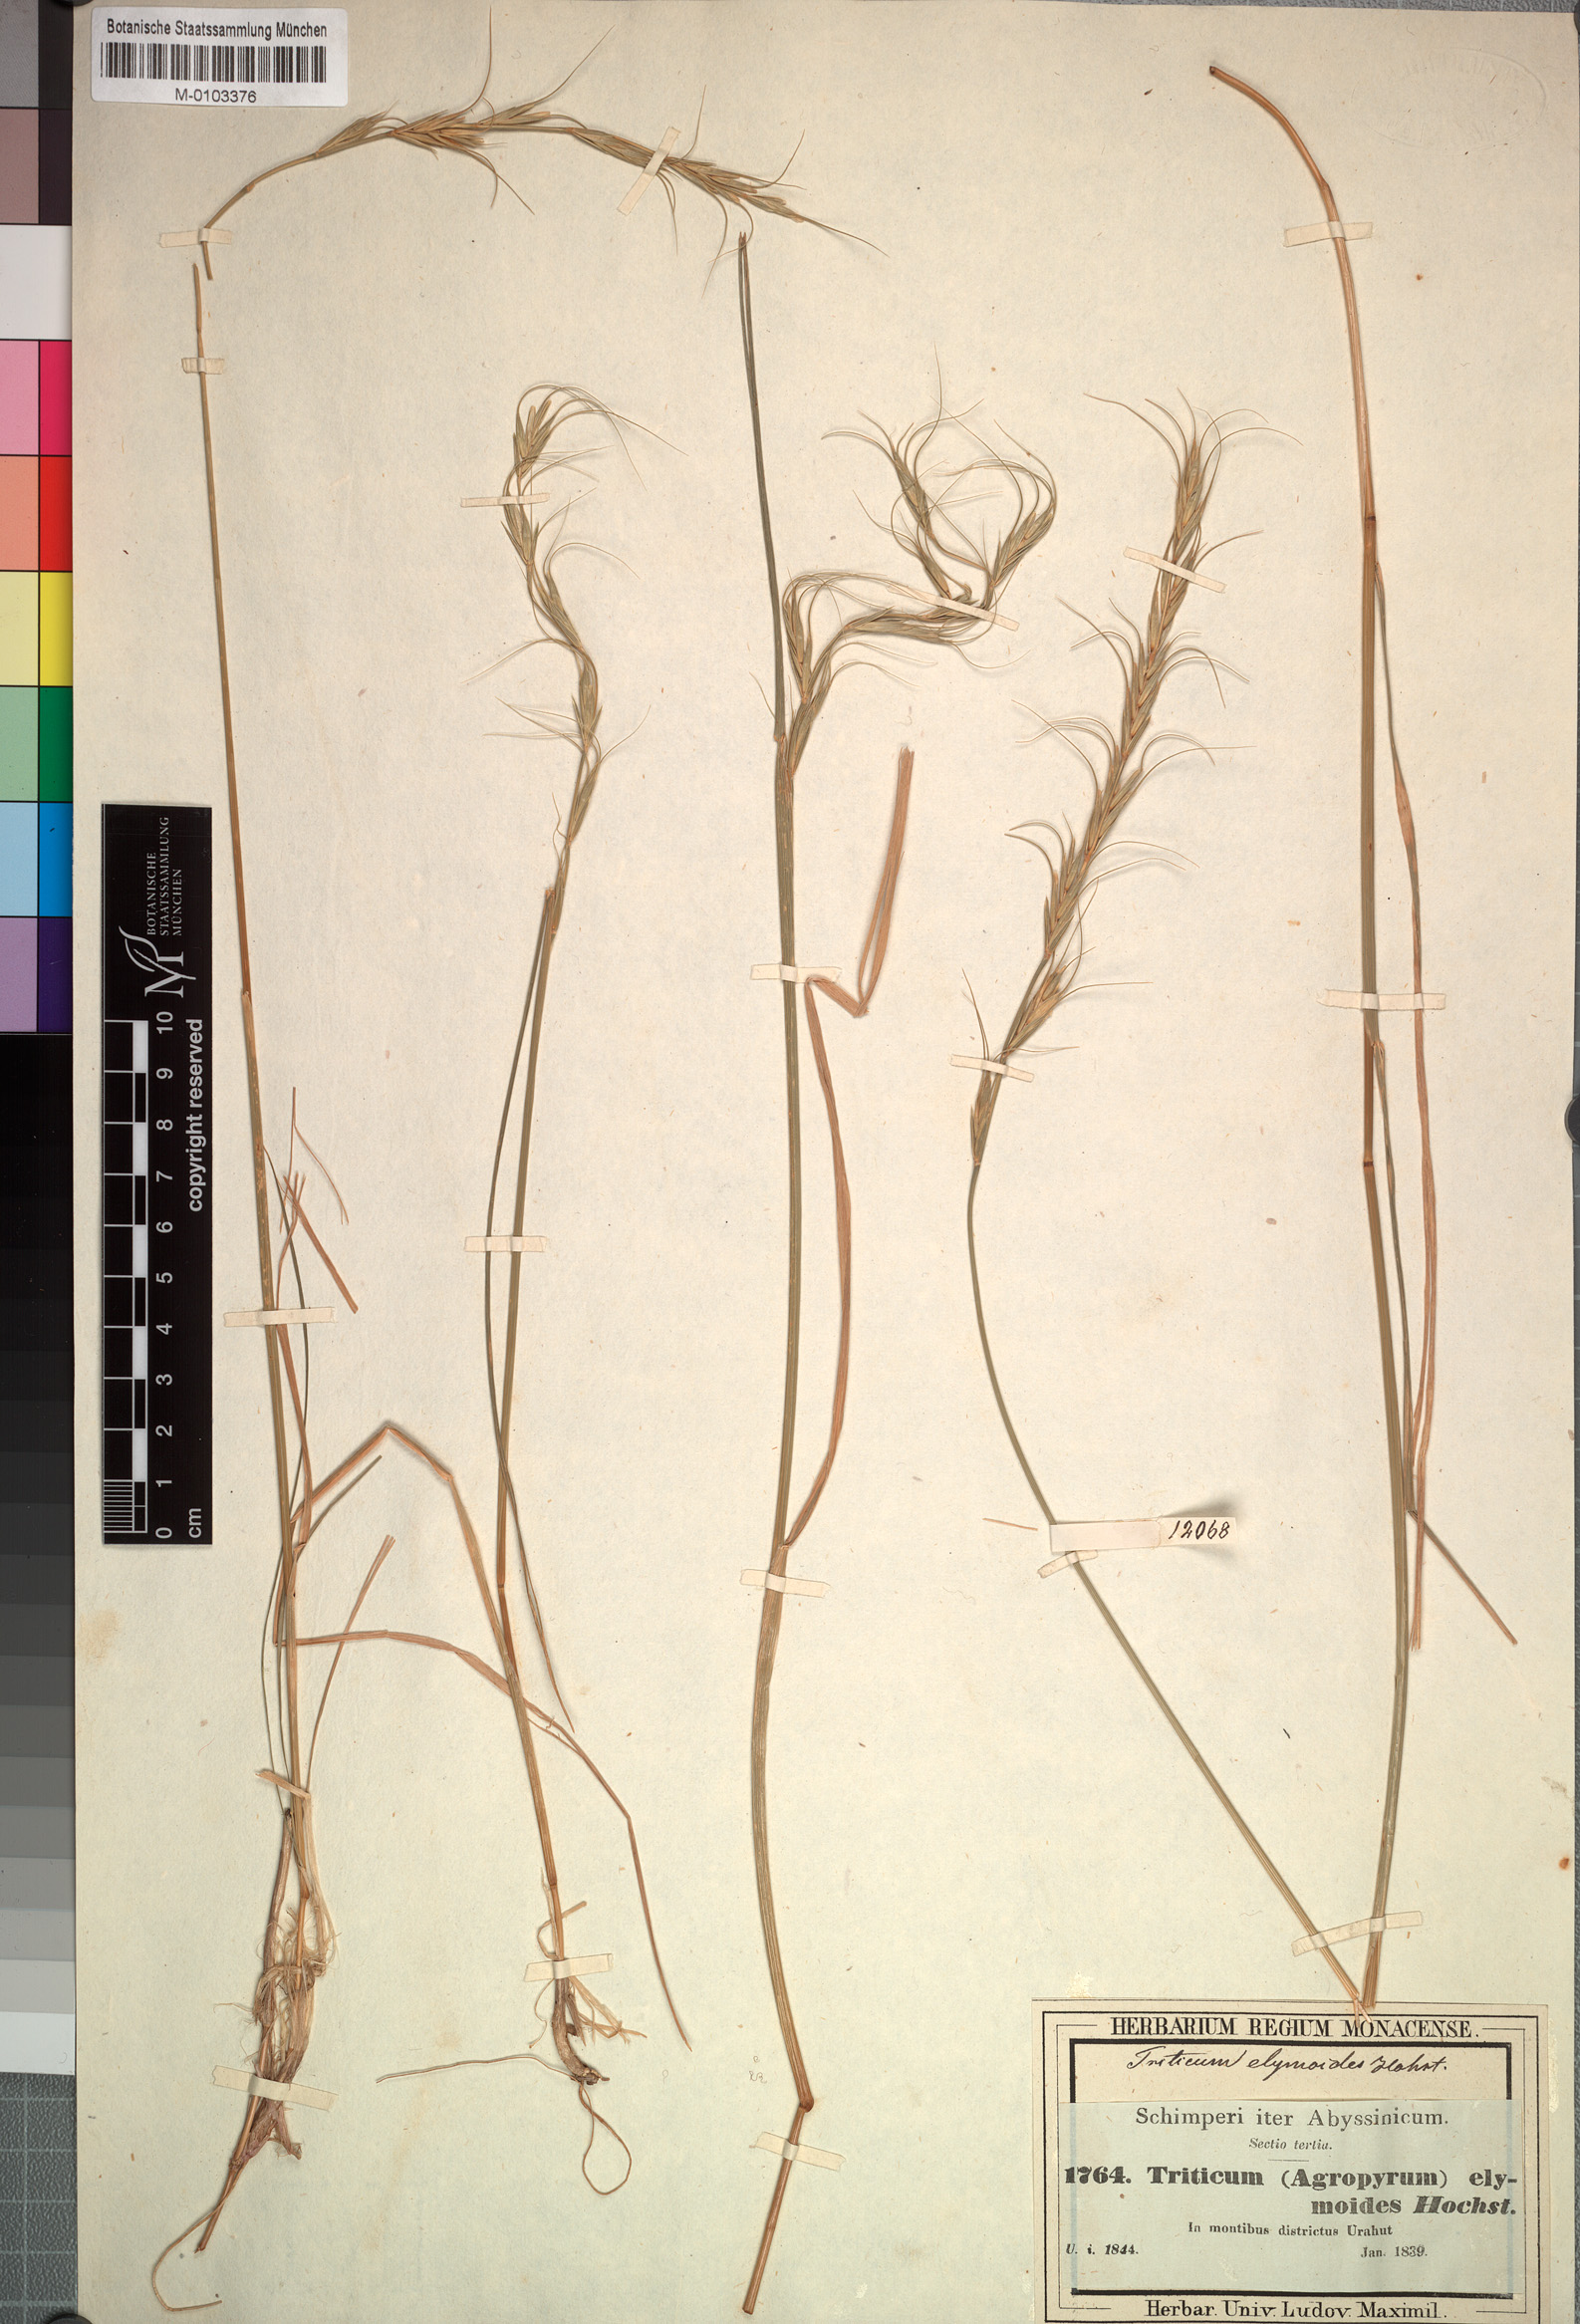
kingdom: Plantae
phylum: Tracheophyta
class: Liliopsida
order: Poales
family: Poaceae
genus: Elymus
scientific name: Elymus africanus
